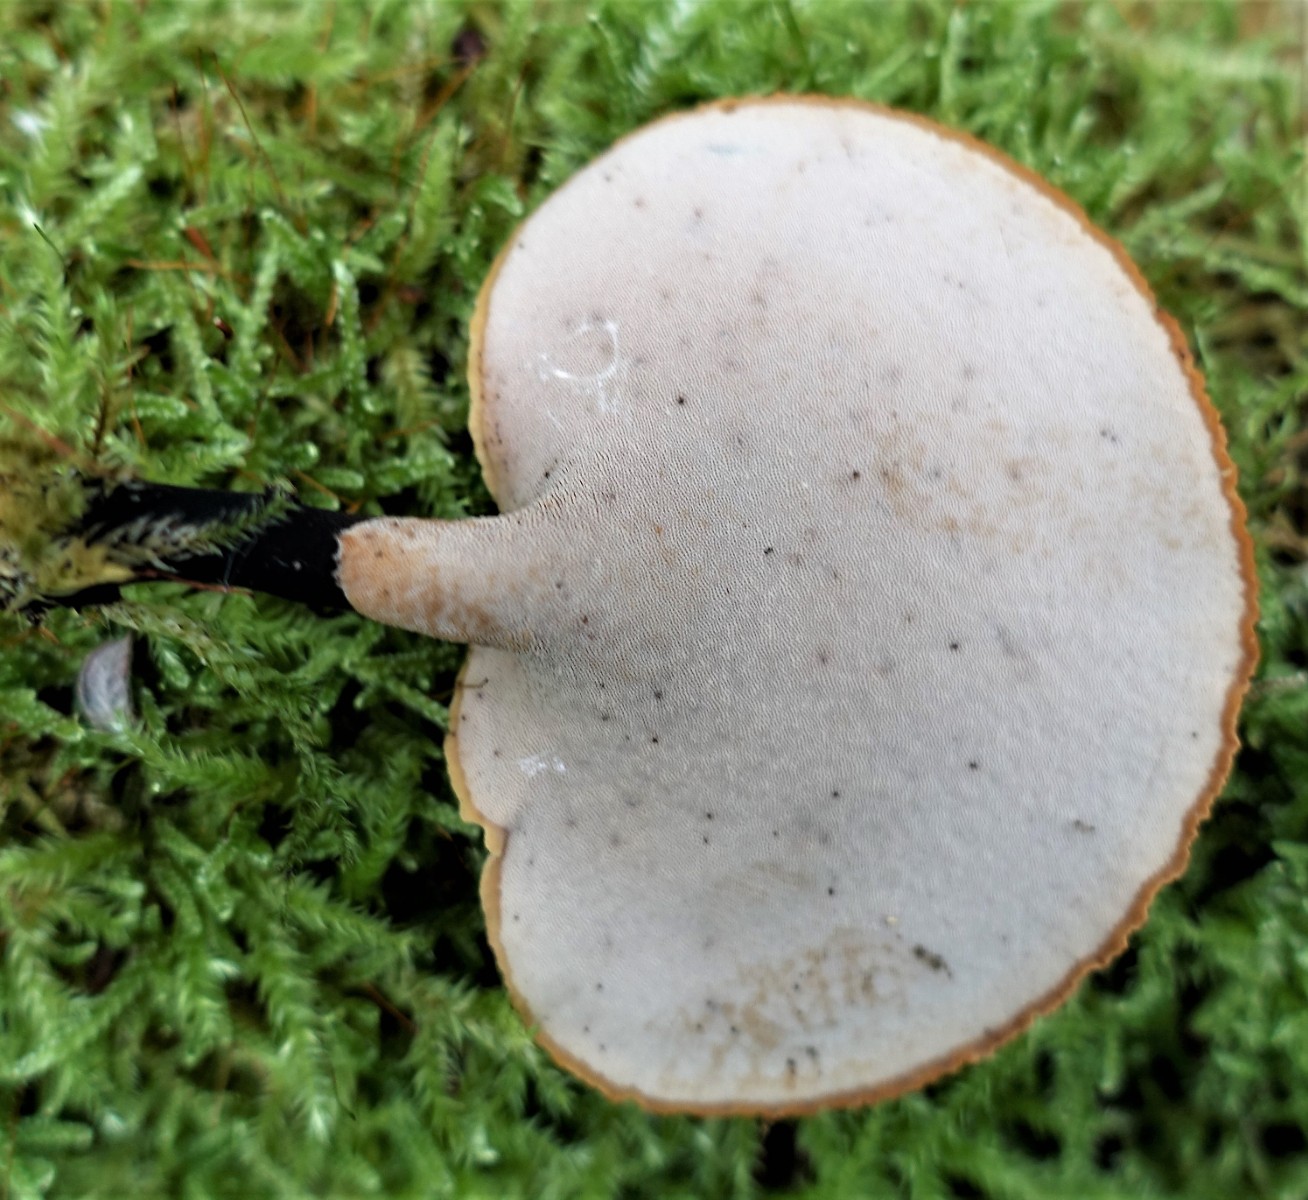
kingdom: Fungi
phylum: Basidiomycota
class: Agaricomycetes
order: Polyporales
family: Polyporaceae
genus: Cerioporus
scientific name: Cerioporus varius
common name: foranderlig stilkporesvamp
